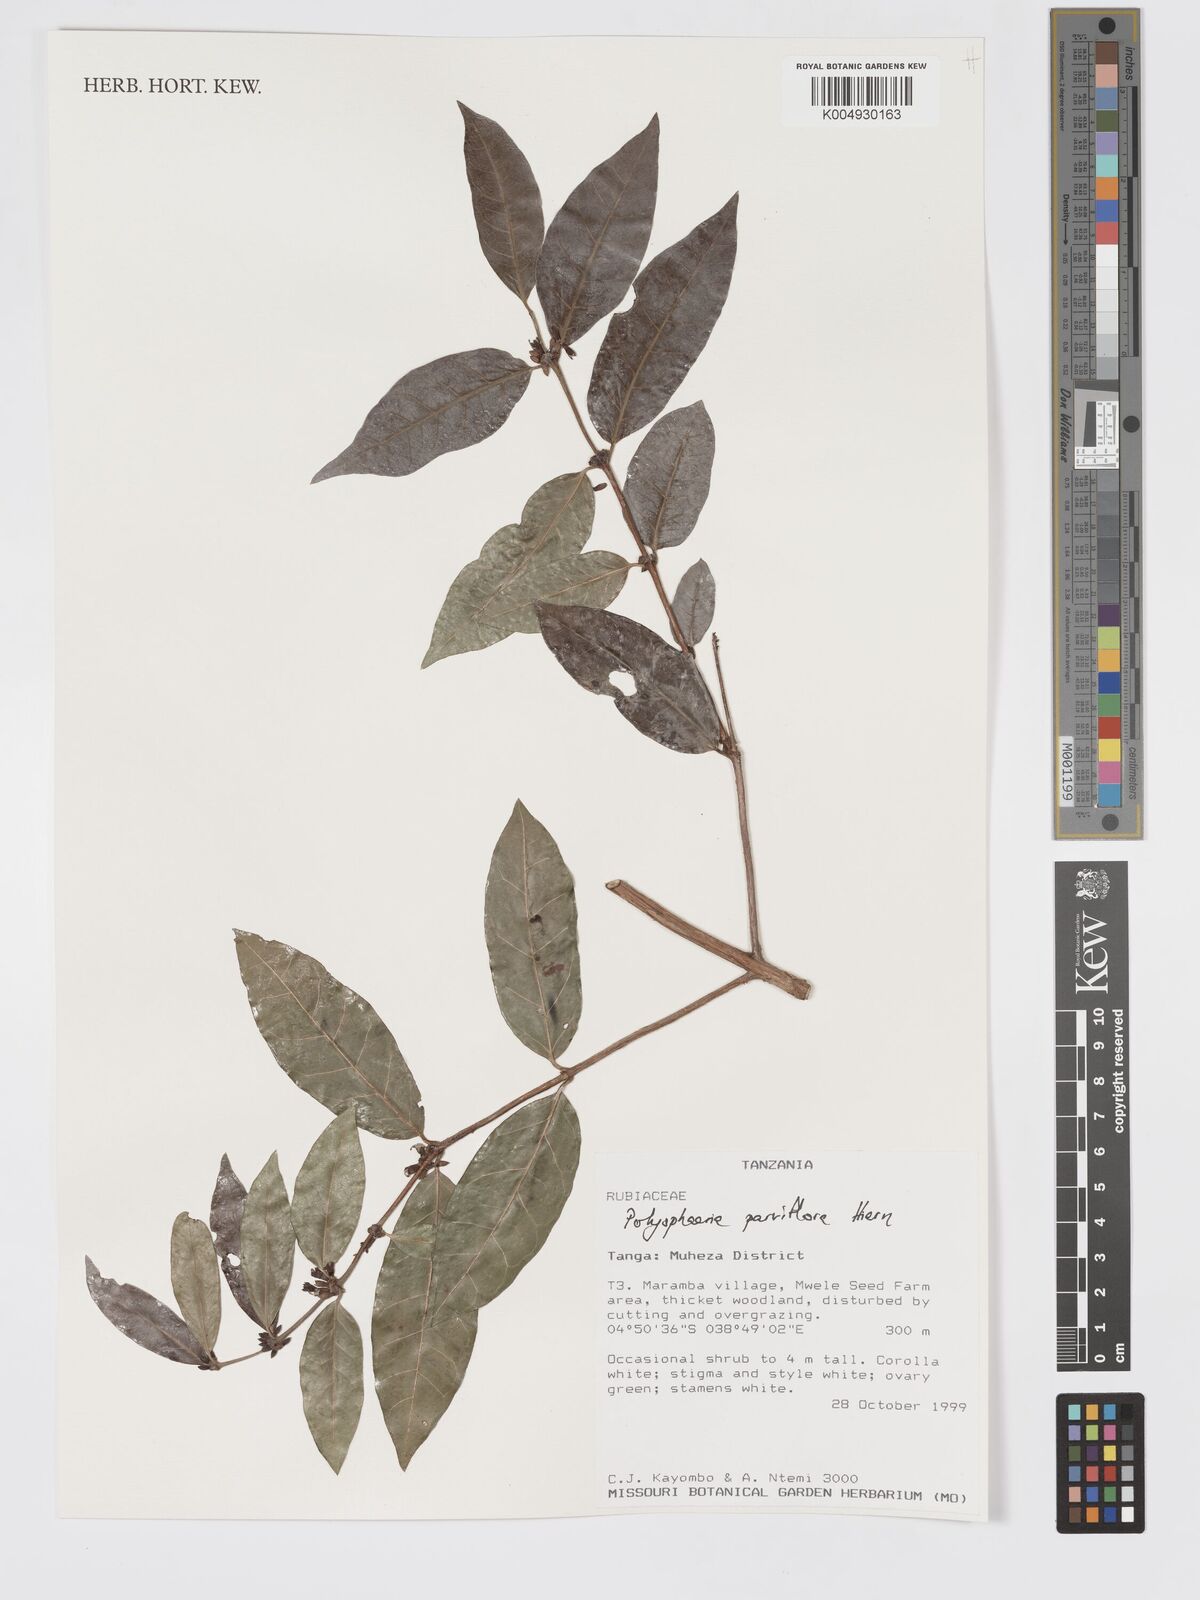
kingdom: Plantae
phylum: Tracheophyta
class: Magnoliopsida
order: Gentianales
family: Rubiaceae
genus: Polysphaeria
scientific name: Polysphaeria parvifolia
